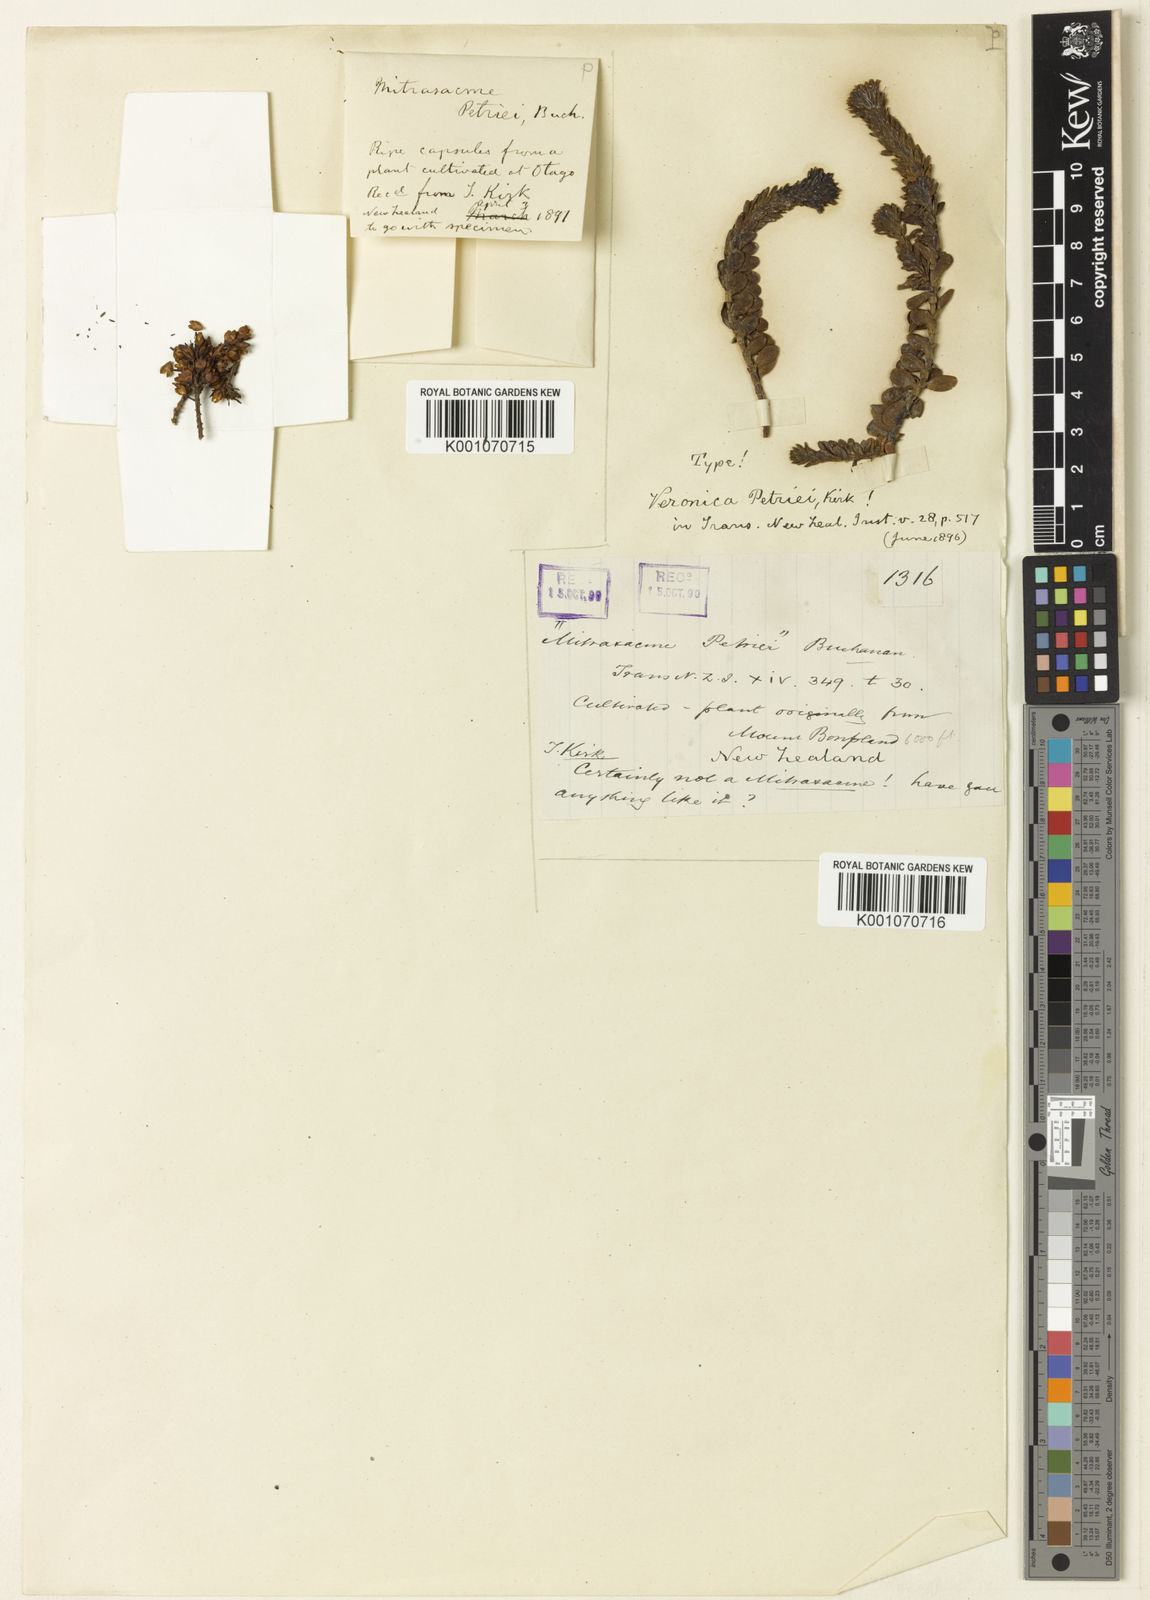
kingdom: Plantae
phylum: Tracheophyta
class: Magnoliopsida
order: Lamiales
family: Plantaginaceae
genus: Veronica
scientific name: Veronica petriei
